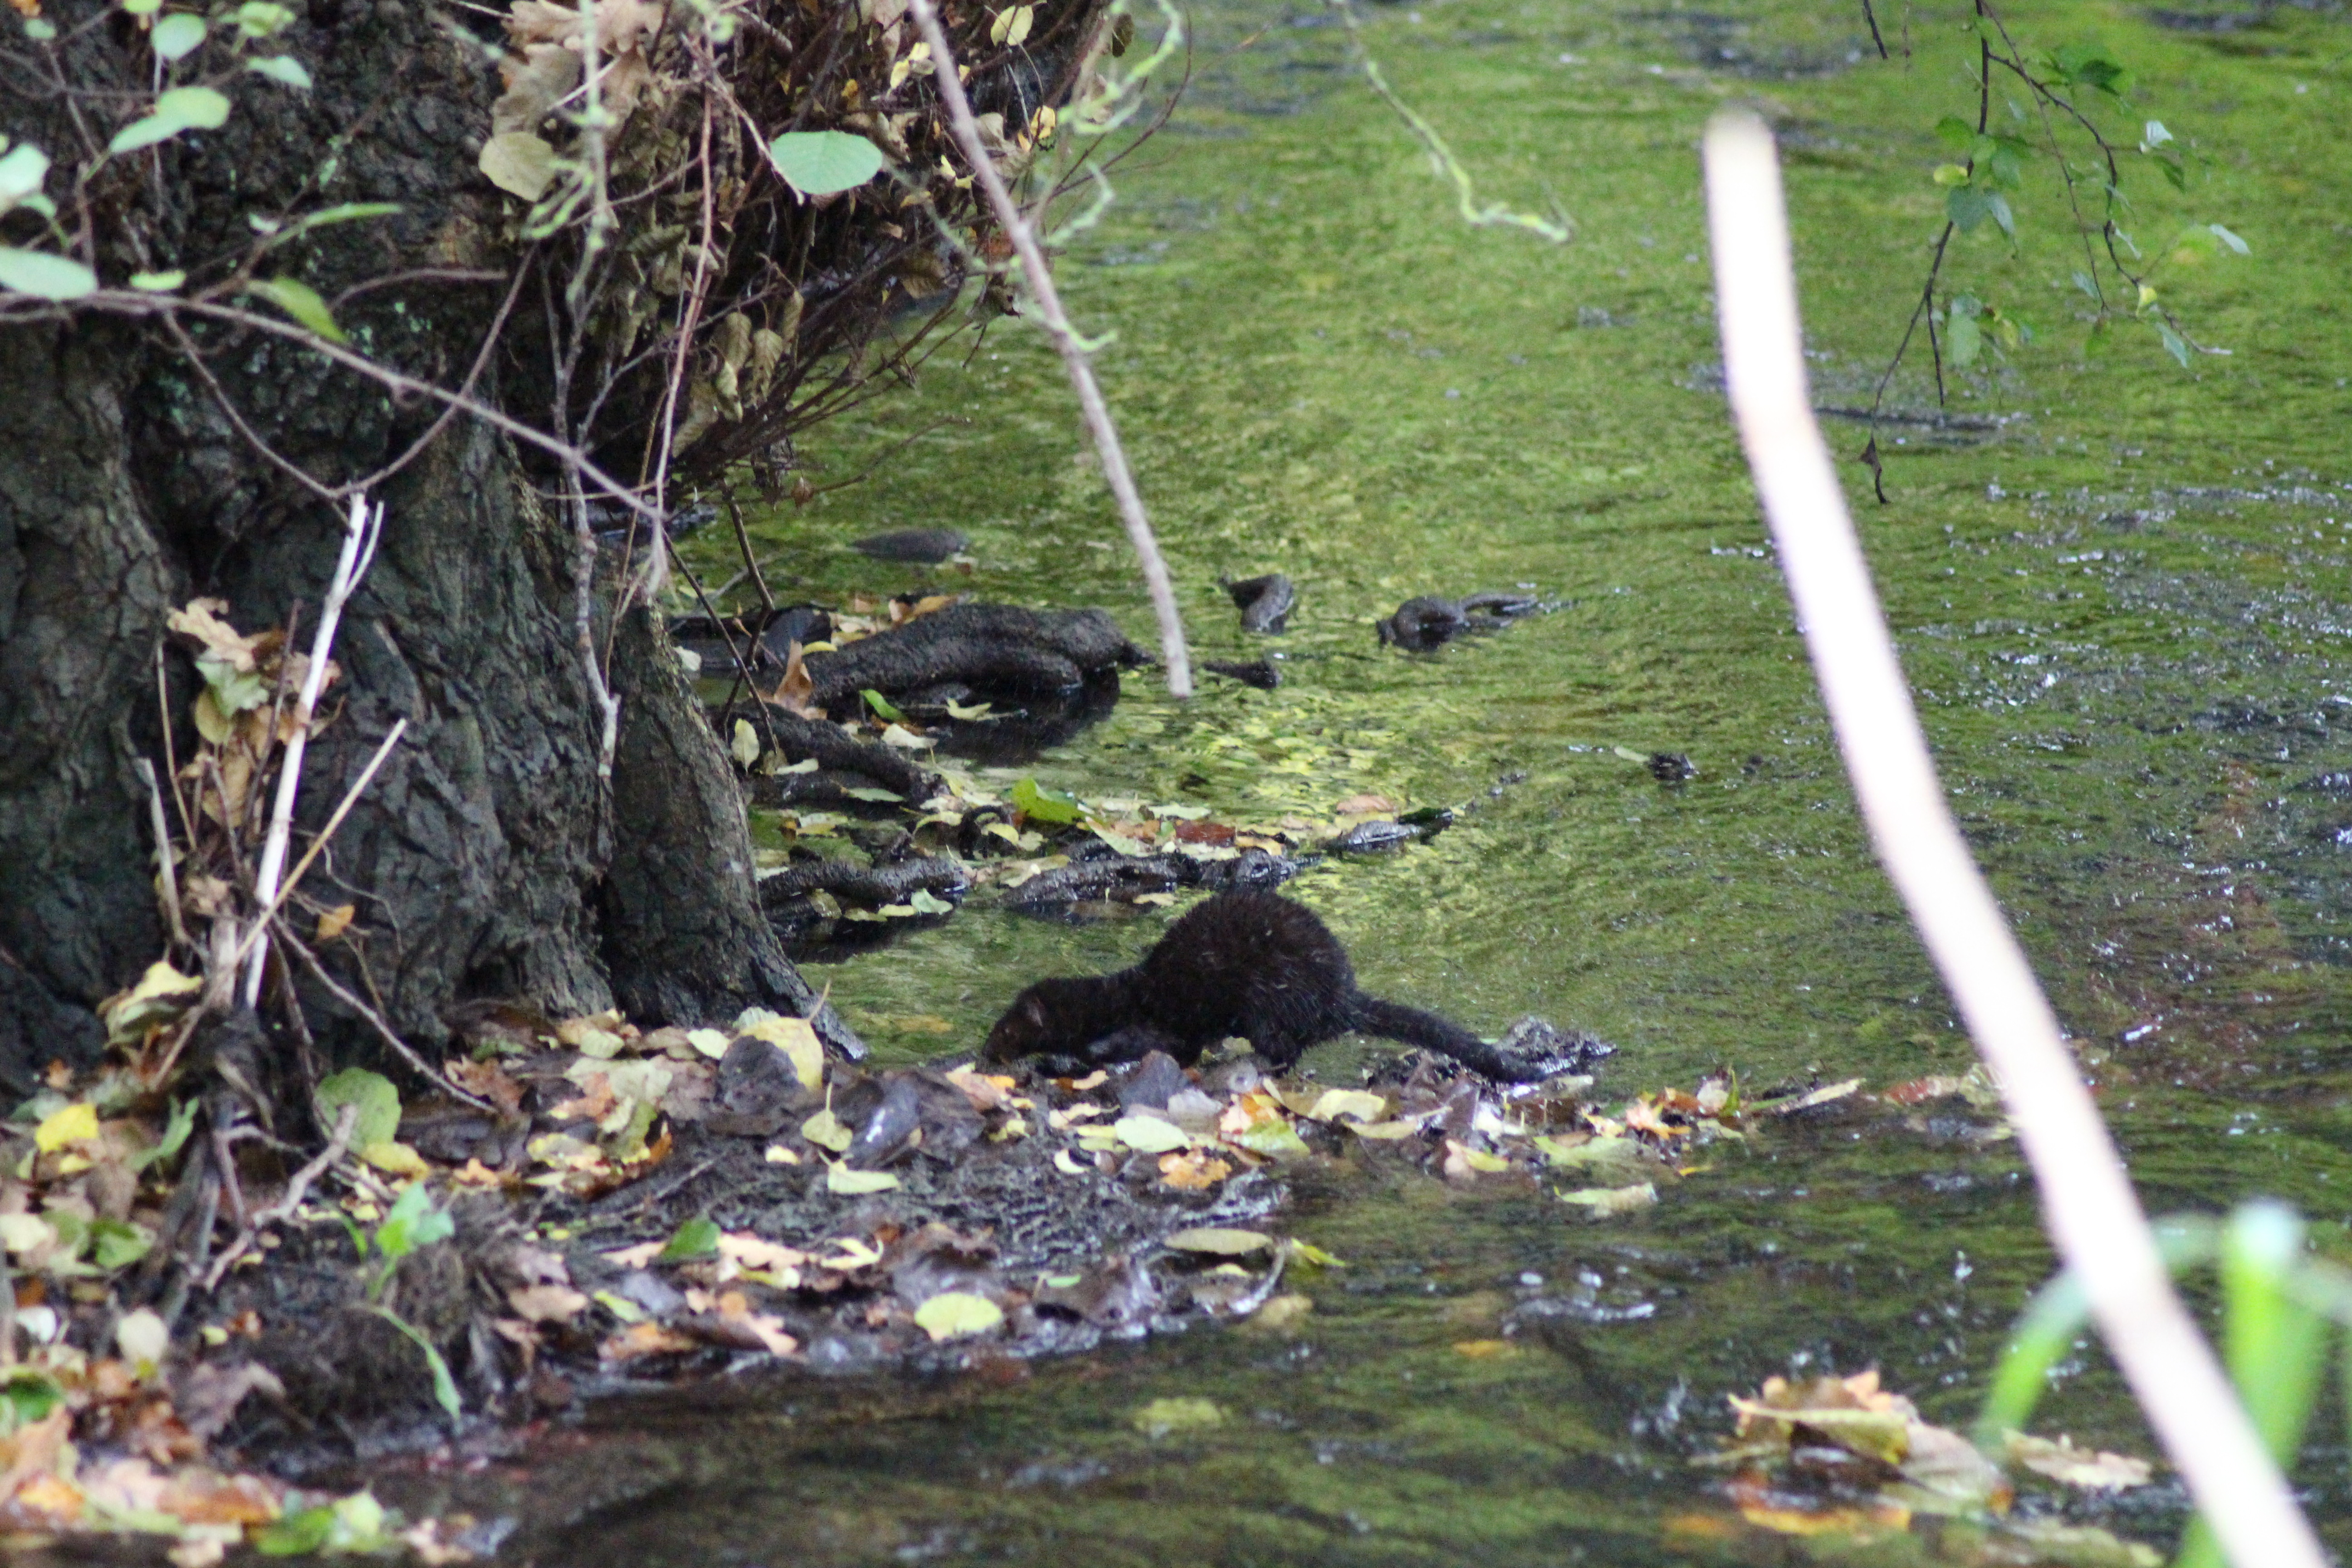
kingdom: Animalia
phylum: Chordata
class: Mammalia
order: Carnivora
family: Mustelidae
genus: Mustela
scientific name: Mustela vison
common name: Mink
